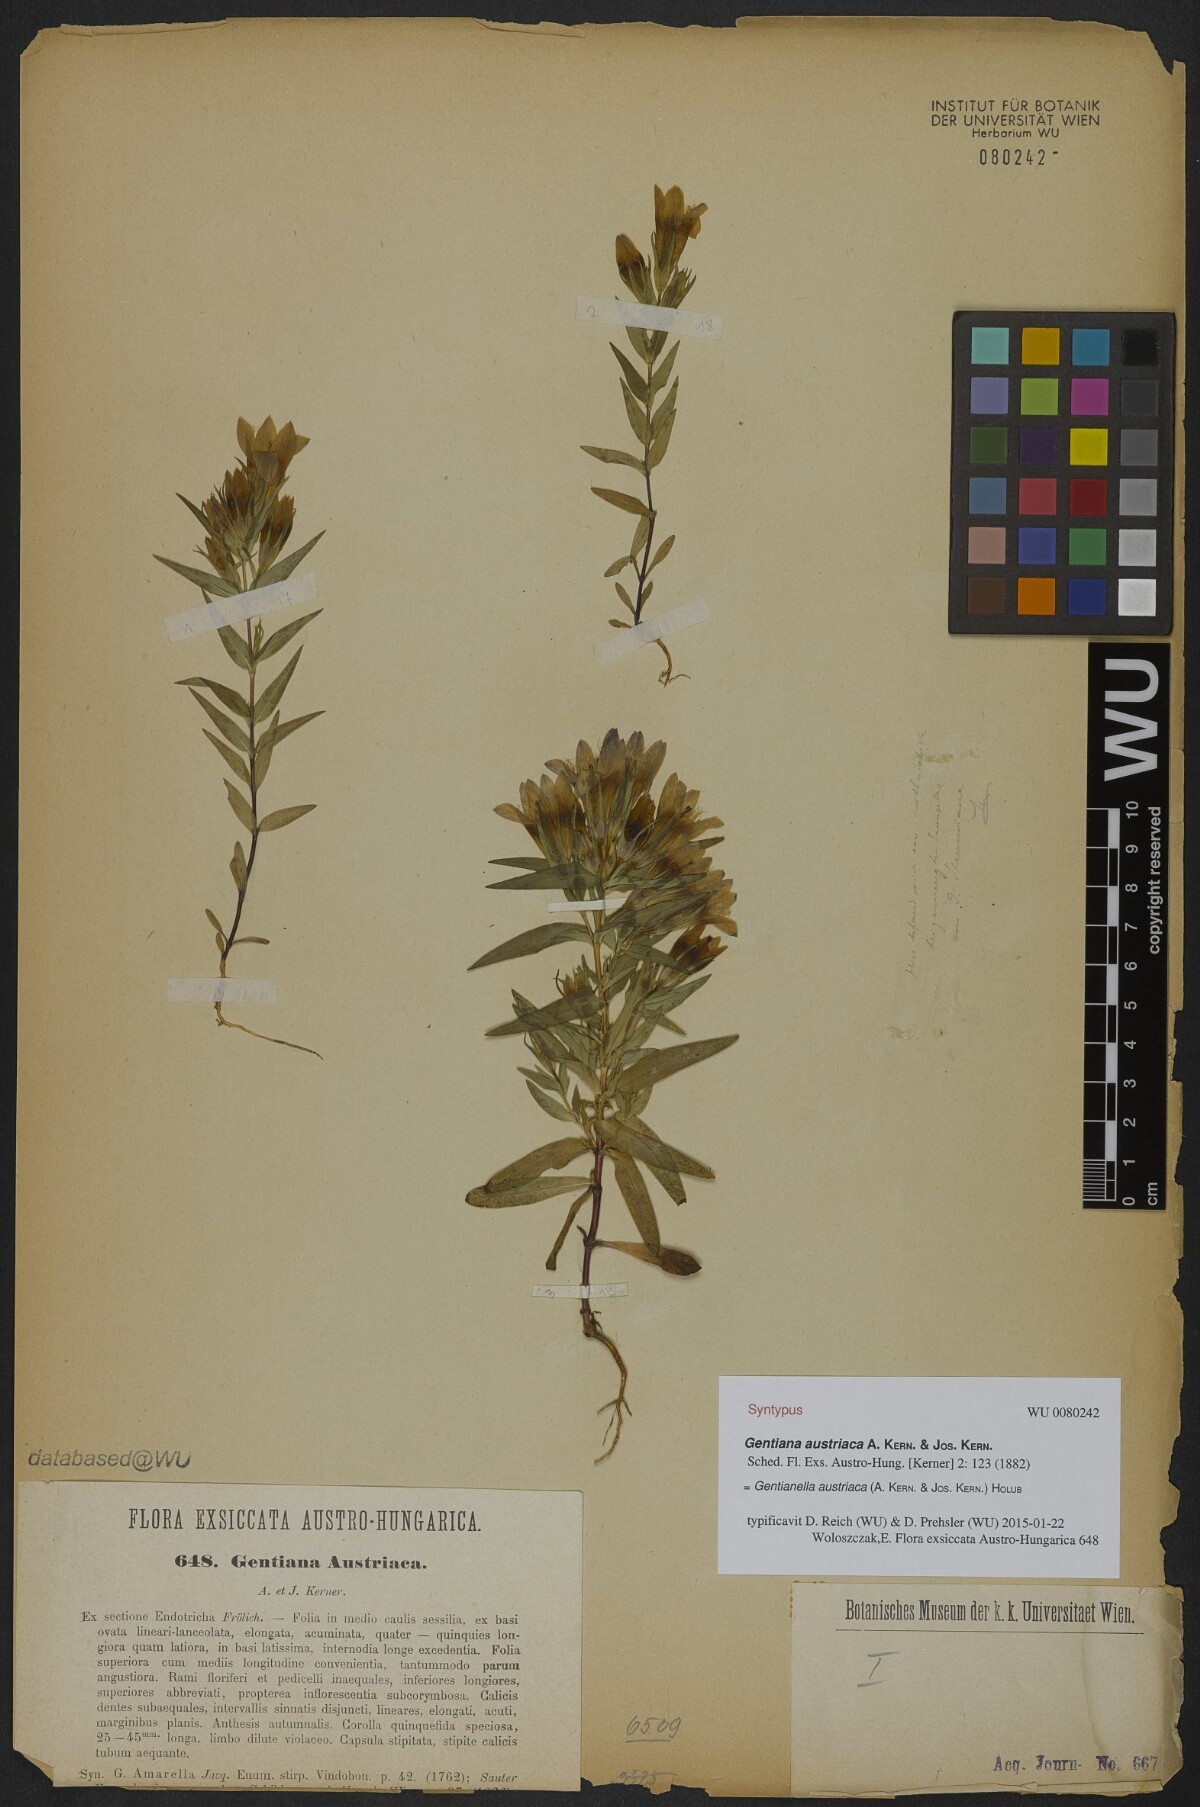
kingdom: Plantae
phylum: Tracheophyta
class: Magnoliopsida
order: Gentianales
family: Gentianaceae
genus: Gentianella
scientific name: Gentianella austriaca
